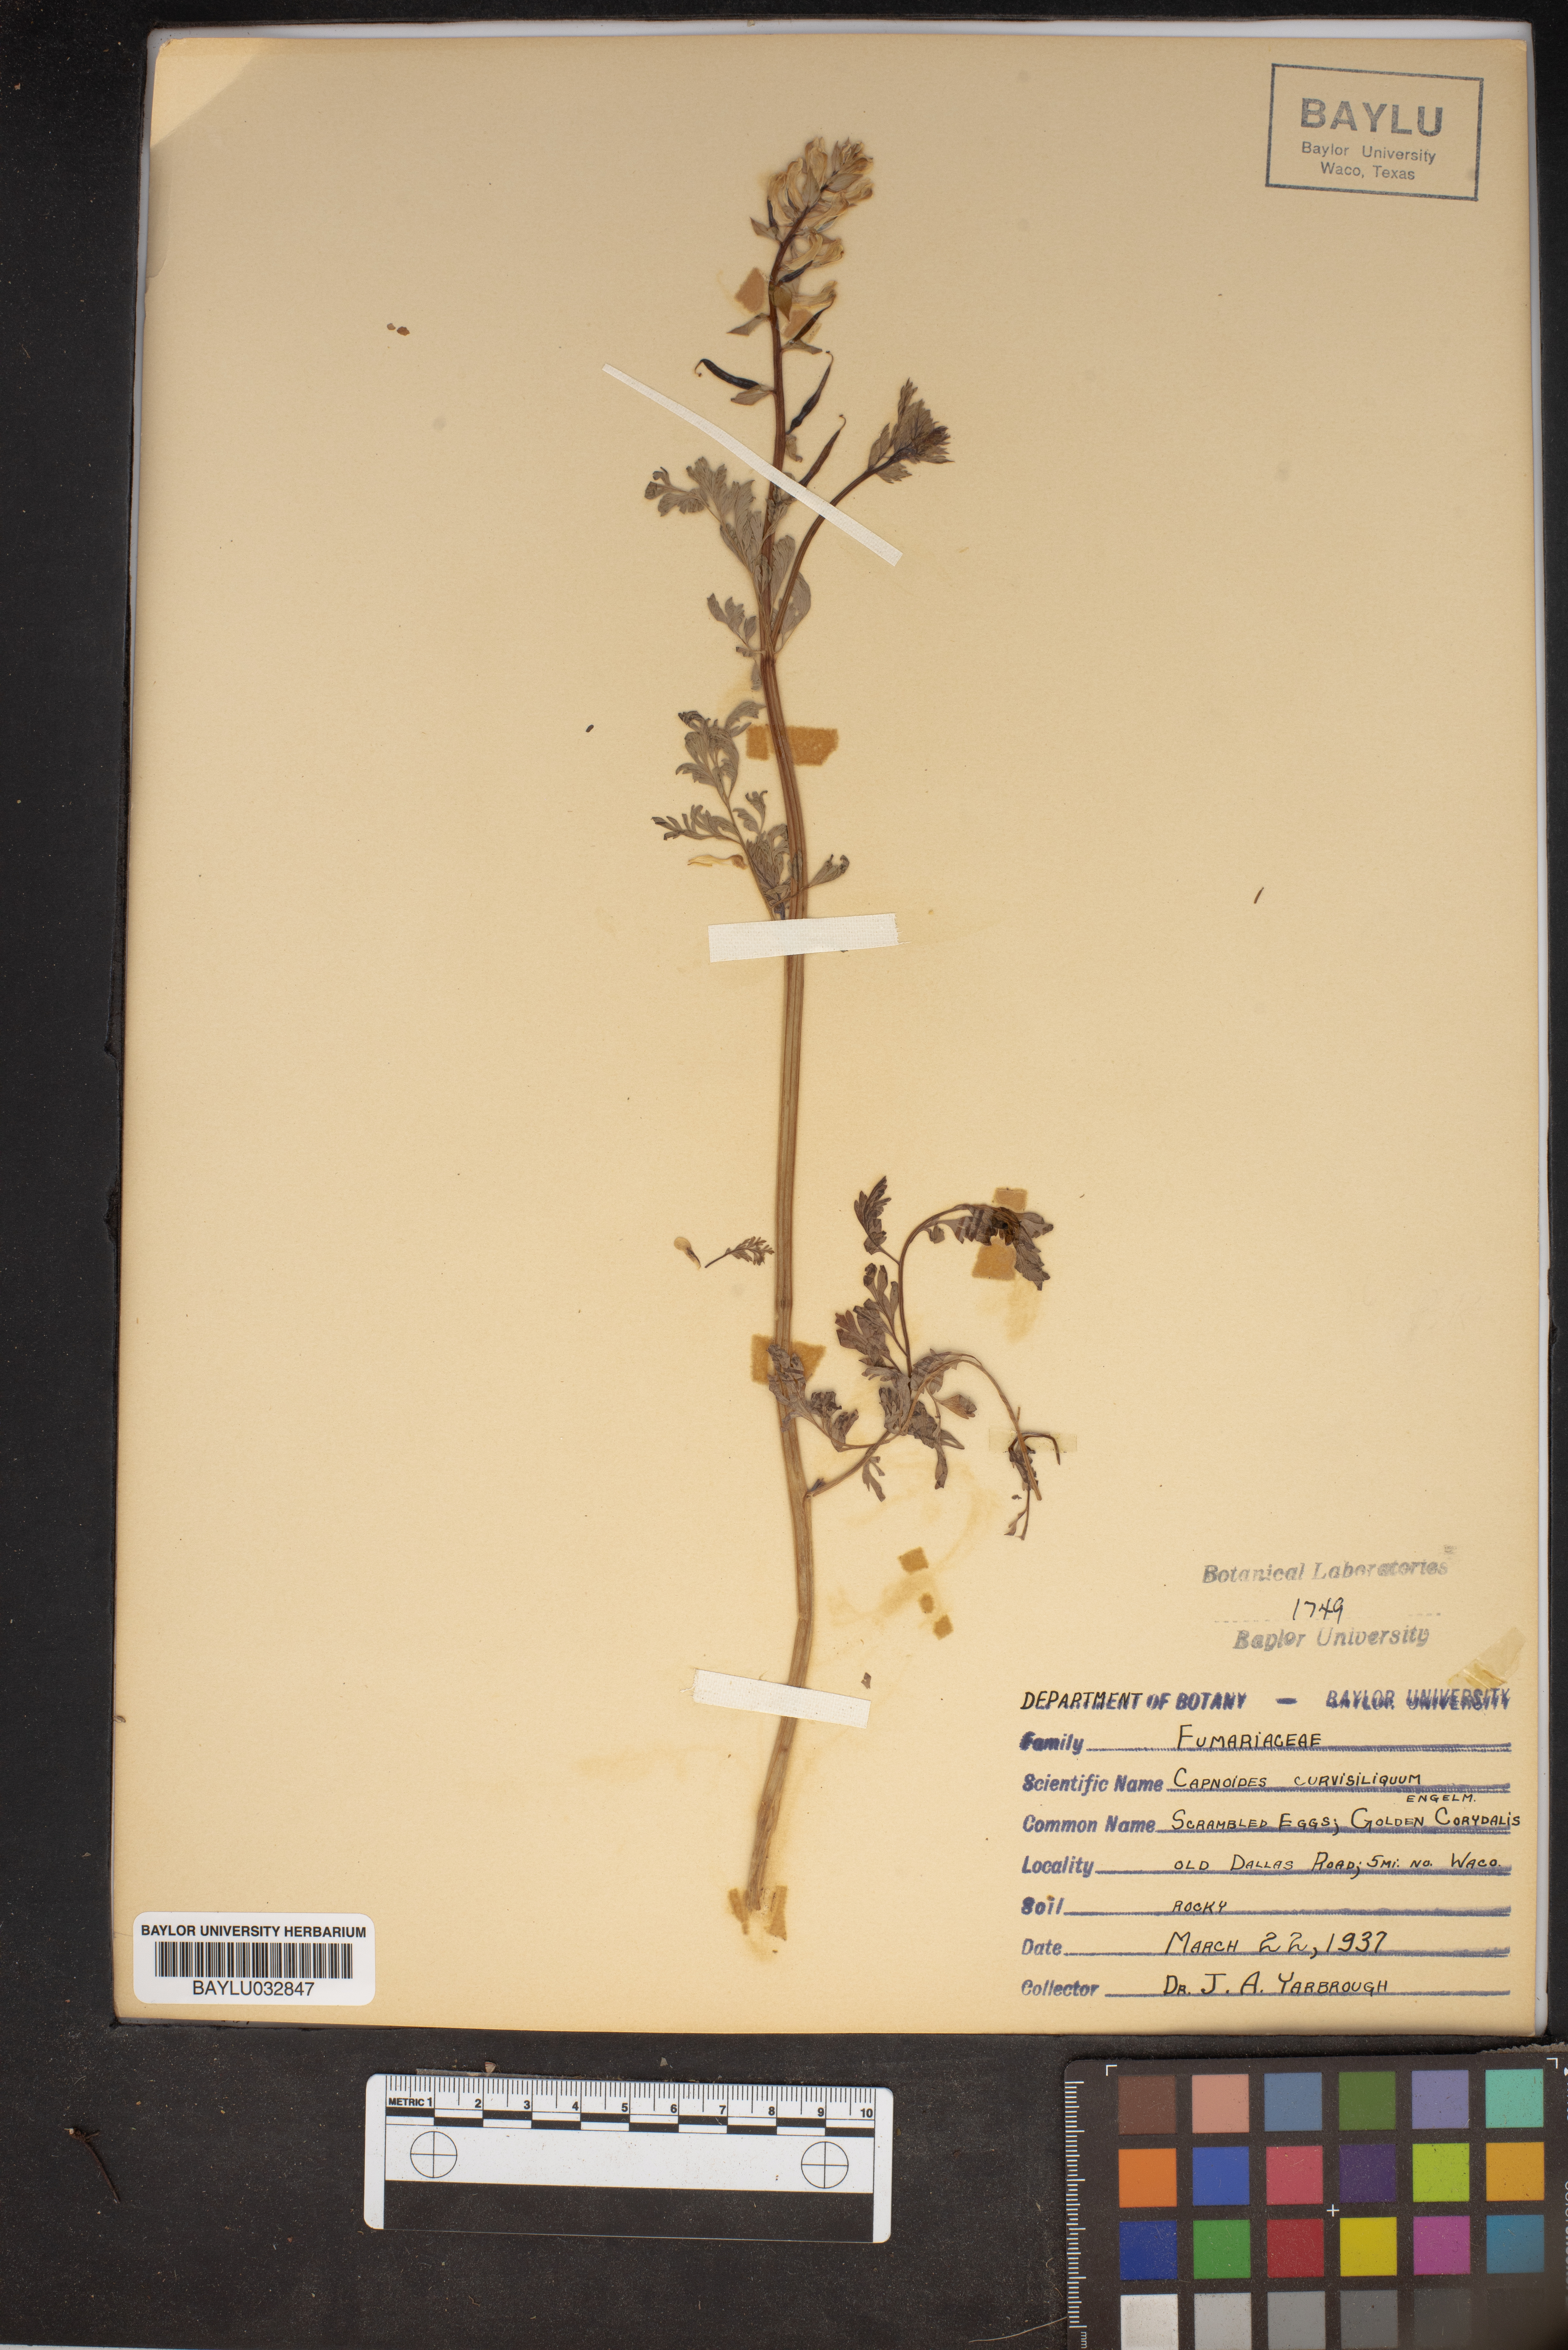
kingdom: Plantae
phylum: Tracheophyta
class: Magnoliopsida
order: Ranunculales
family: Papaveraceae
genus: Corydalis
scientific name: Corydalis curvisiliqua
